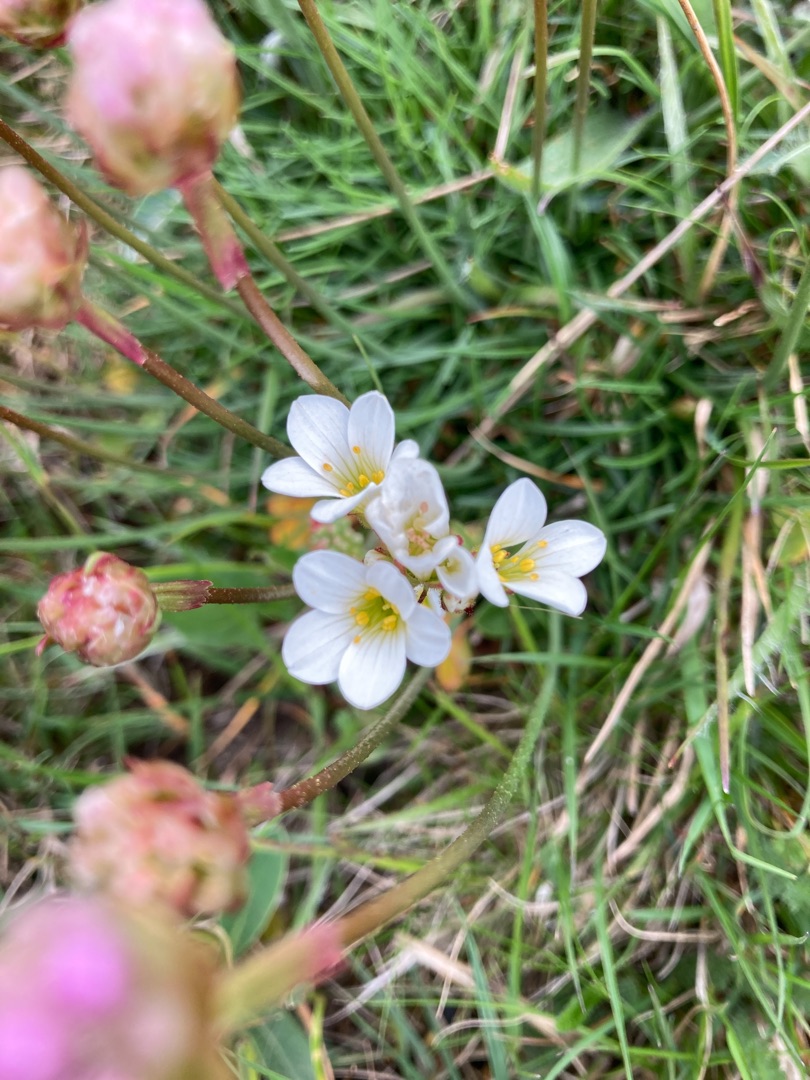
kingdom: Plantae
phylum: Tracheophyta
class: Magnoliopsida
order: Saxifragales
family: Saxifragaceae
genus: Saxifraga
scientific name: Saxifraga granulata
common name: Kornet stenbræk
